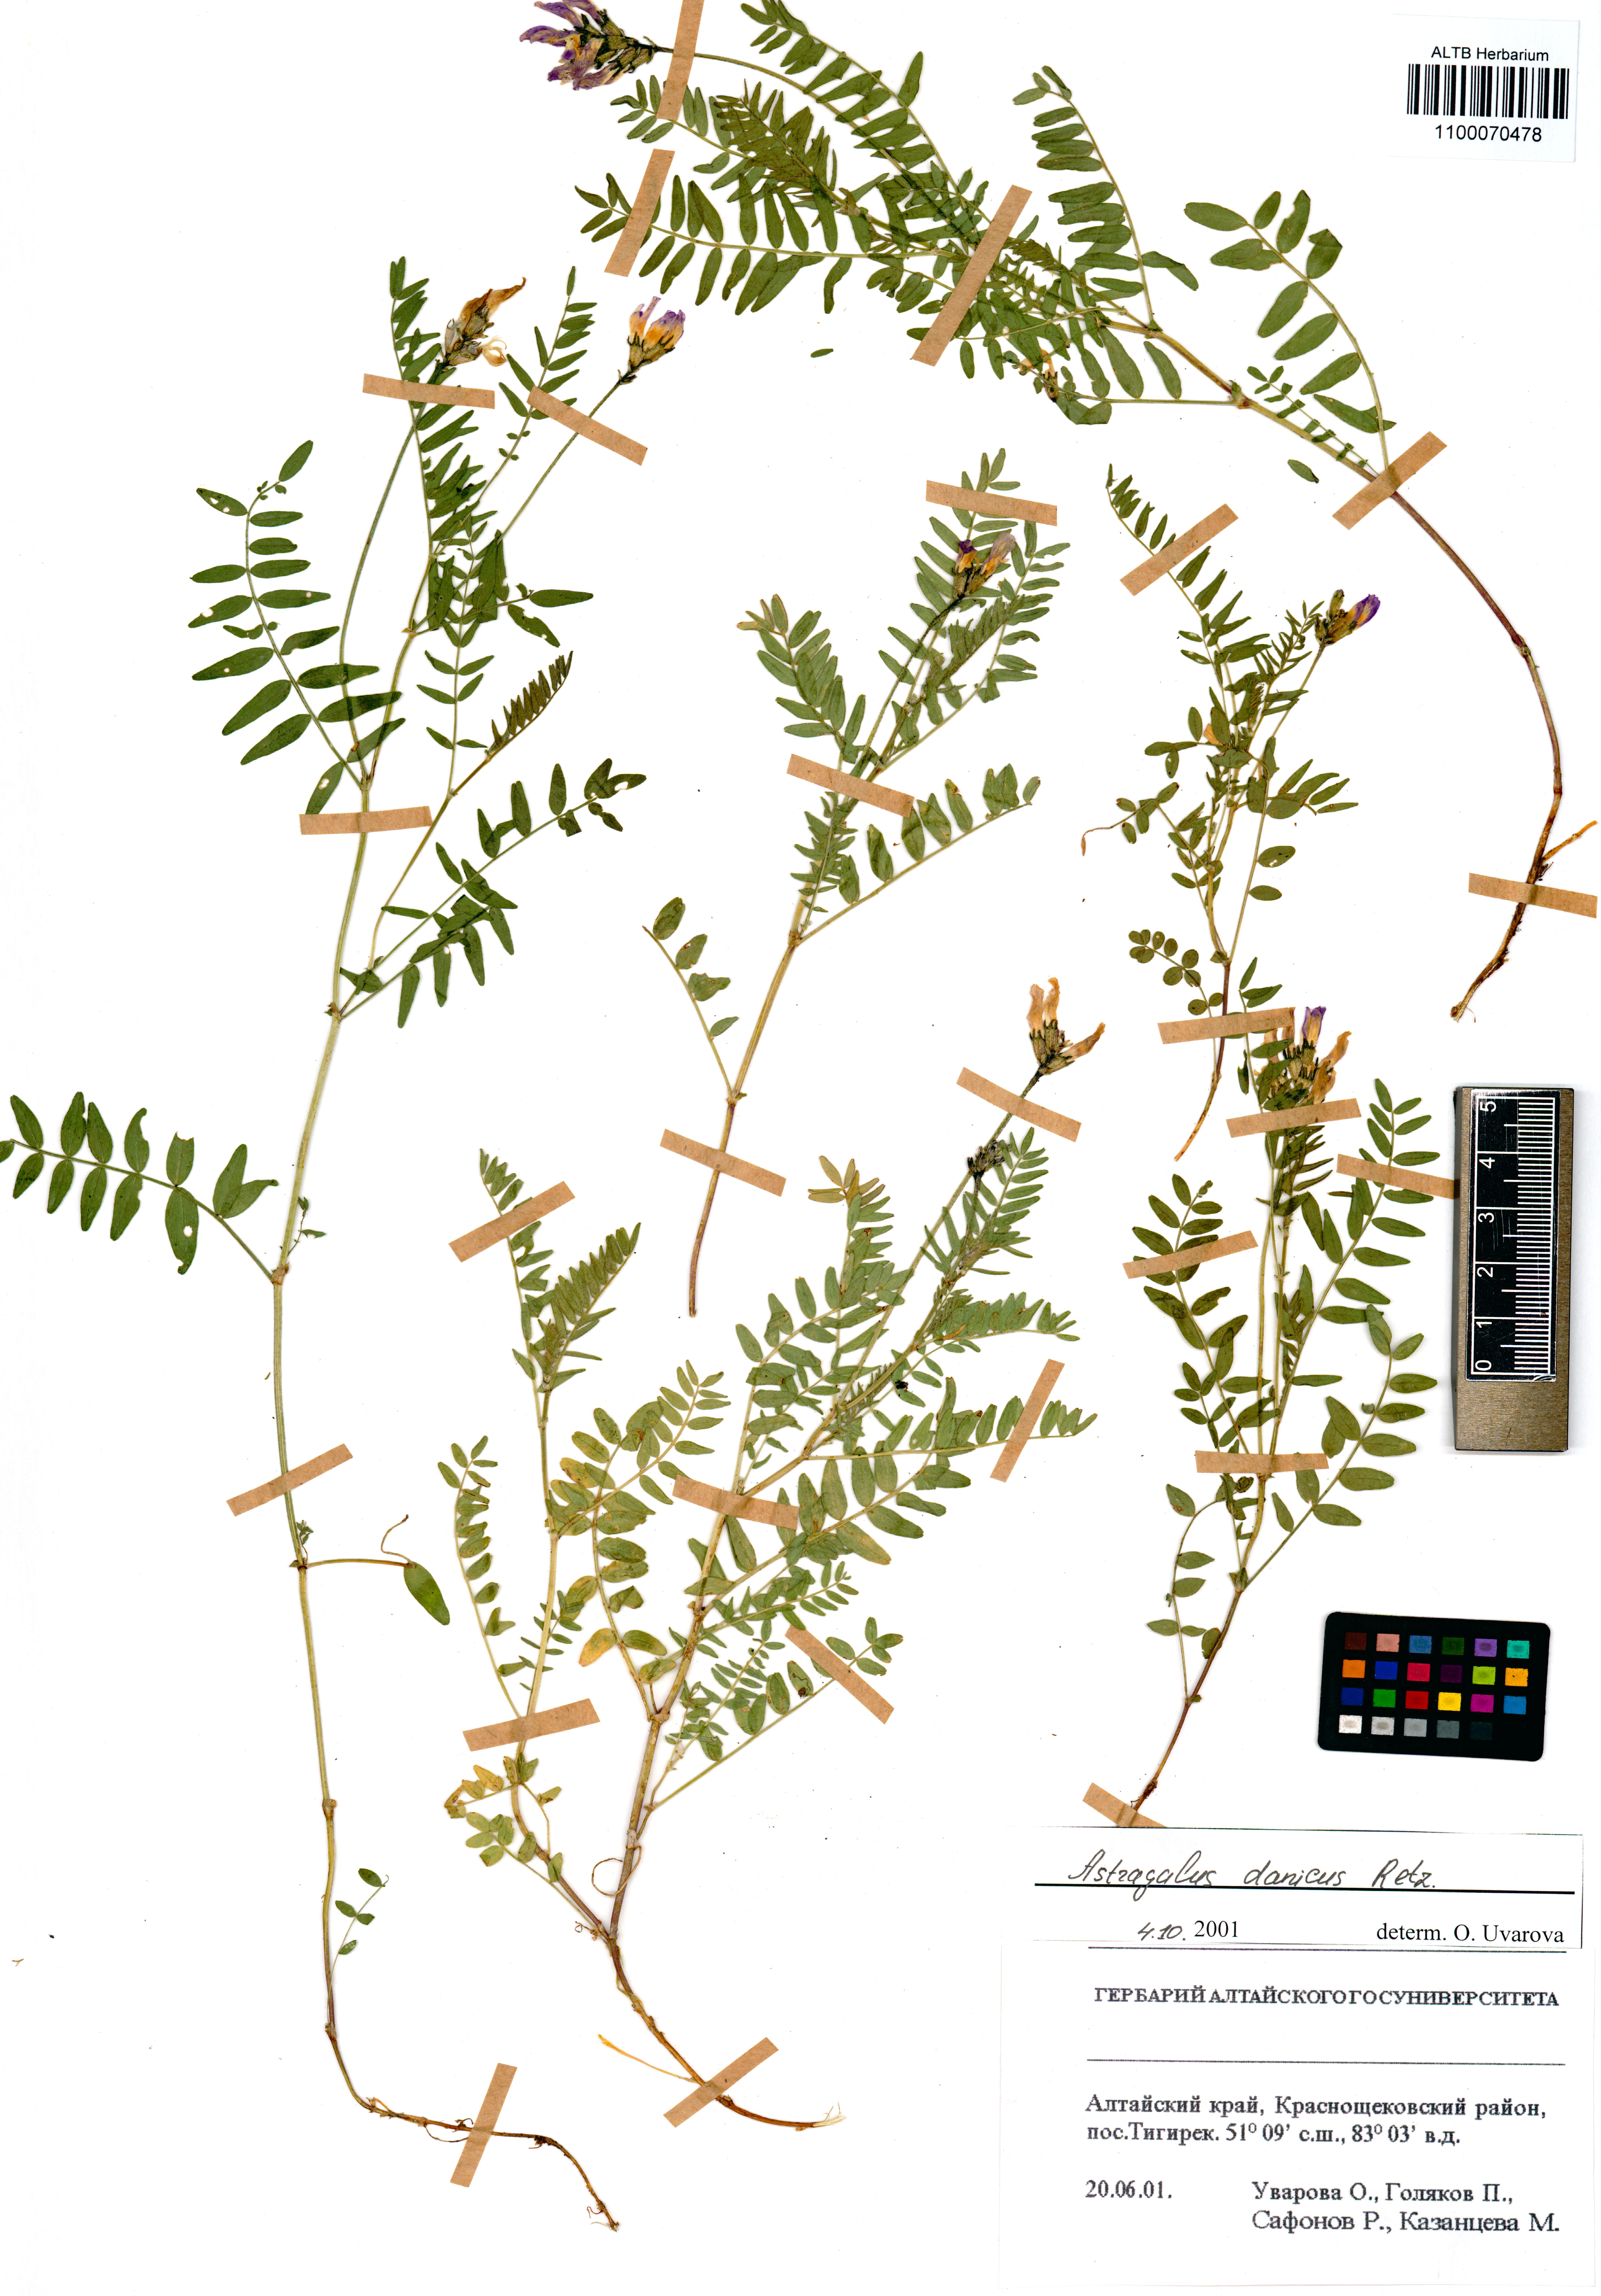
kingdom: Plantae
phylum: Tracheophyta
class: Magnoliopsida
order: Fabales
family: Fabaceae
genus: Astragalus
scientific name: Astragalus danicus
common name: Purple milk-vetch
